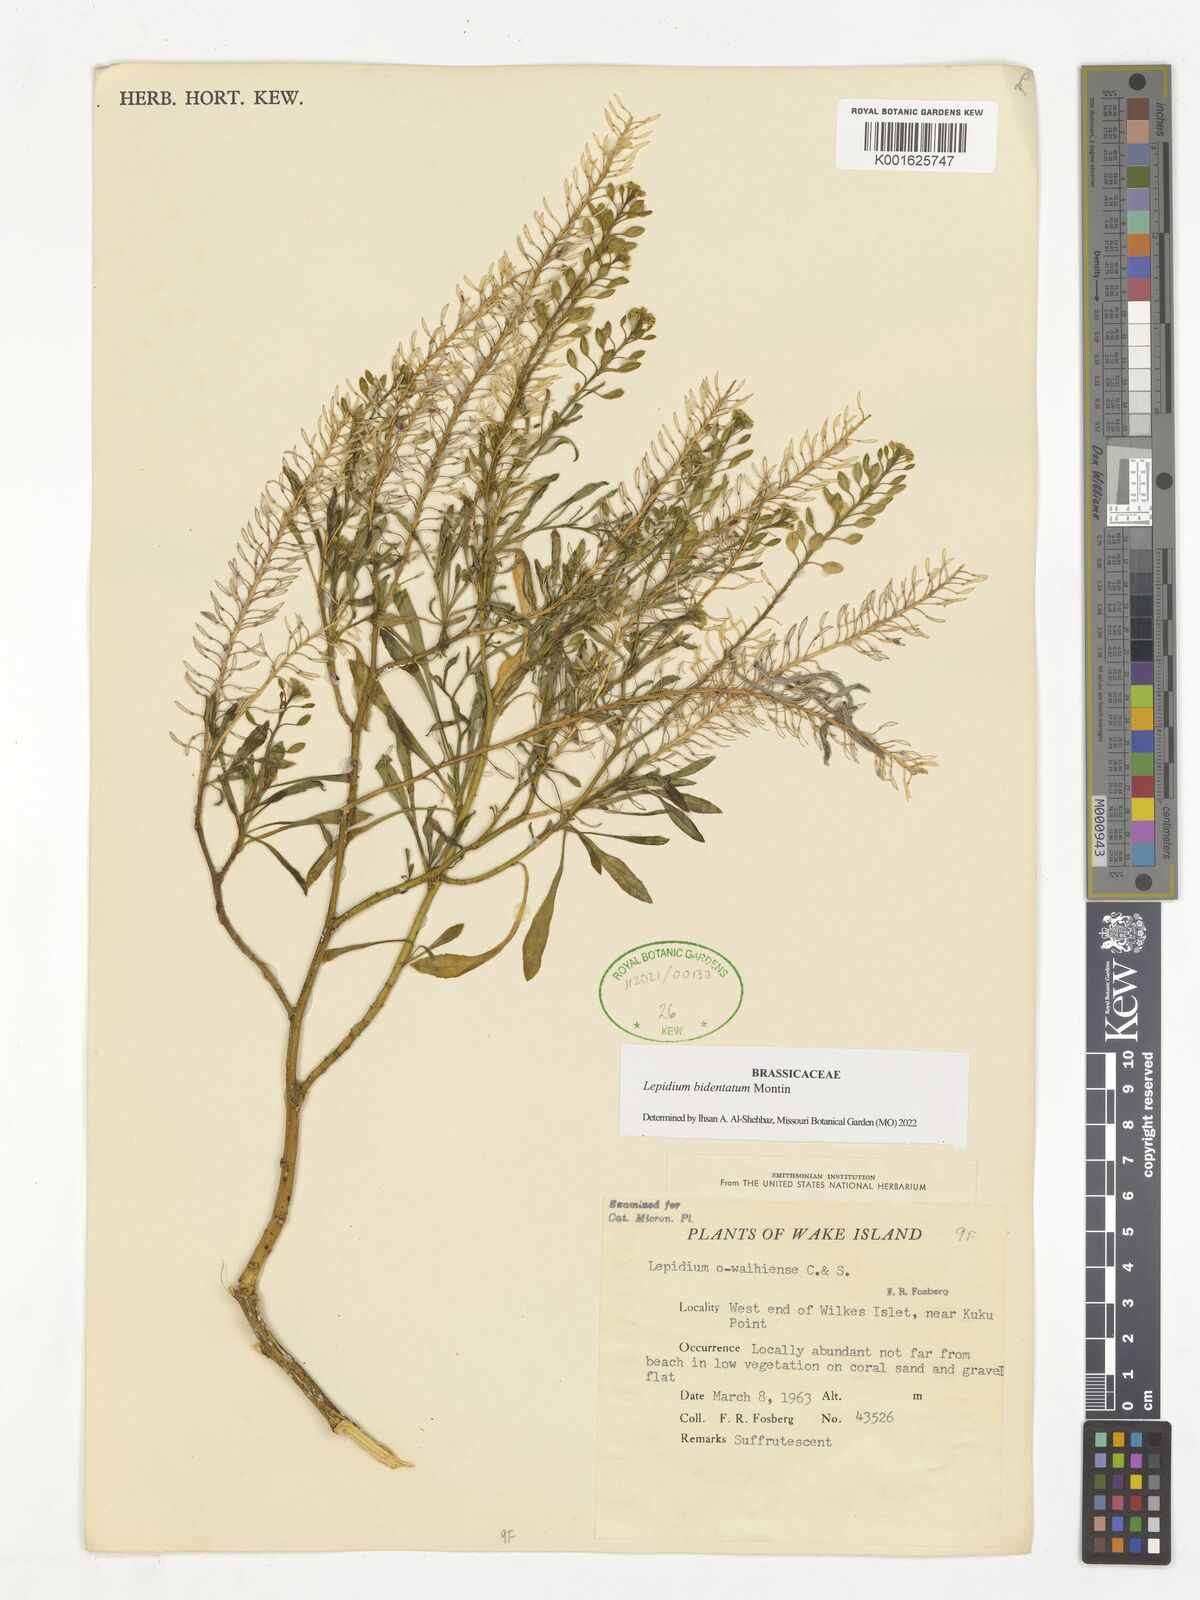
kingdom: Plantae
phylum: Tracheophyta
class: Magnoliopsida
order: Brassicales
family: Brassicaceae
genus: Lepidium
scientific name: Lepidium bidentatum
